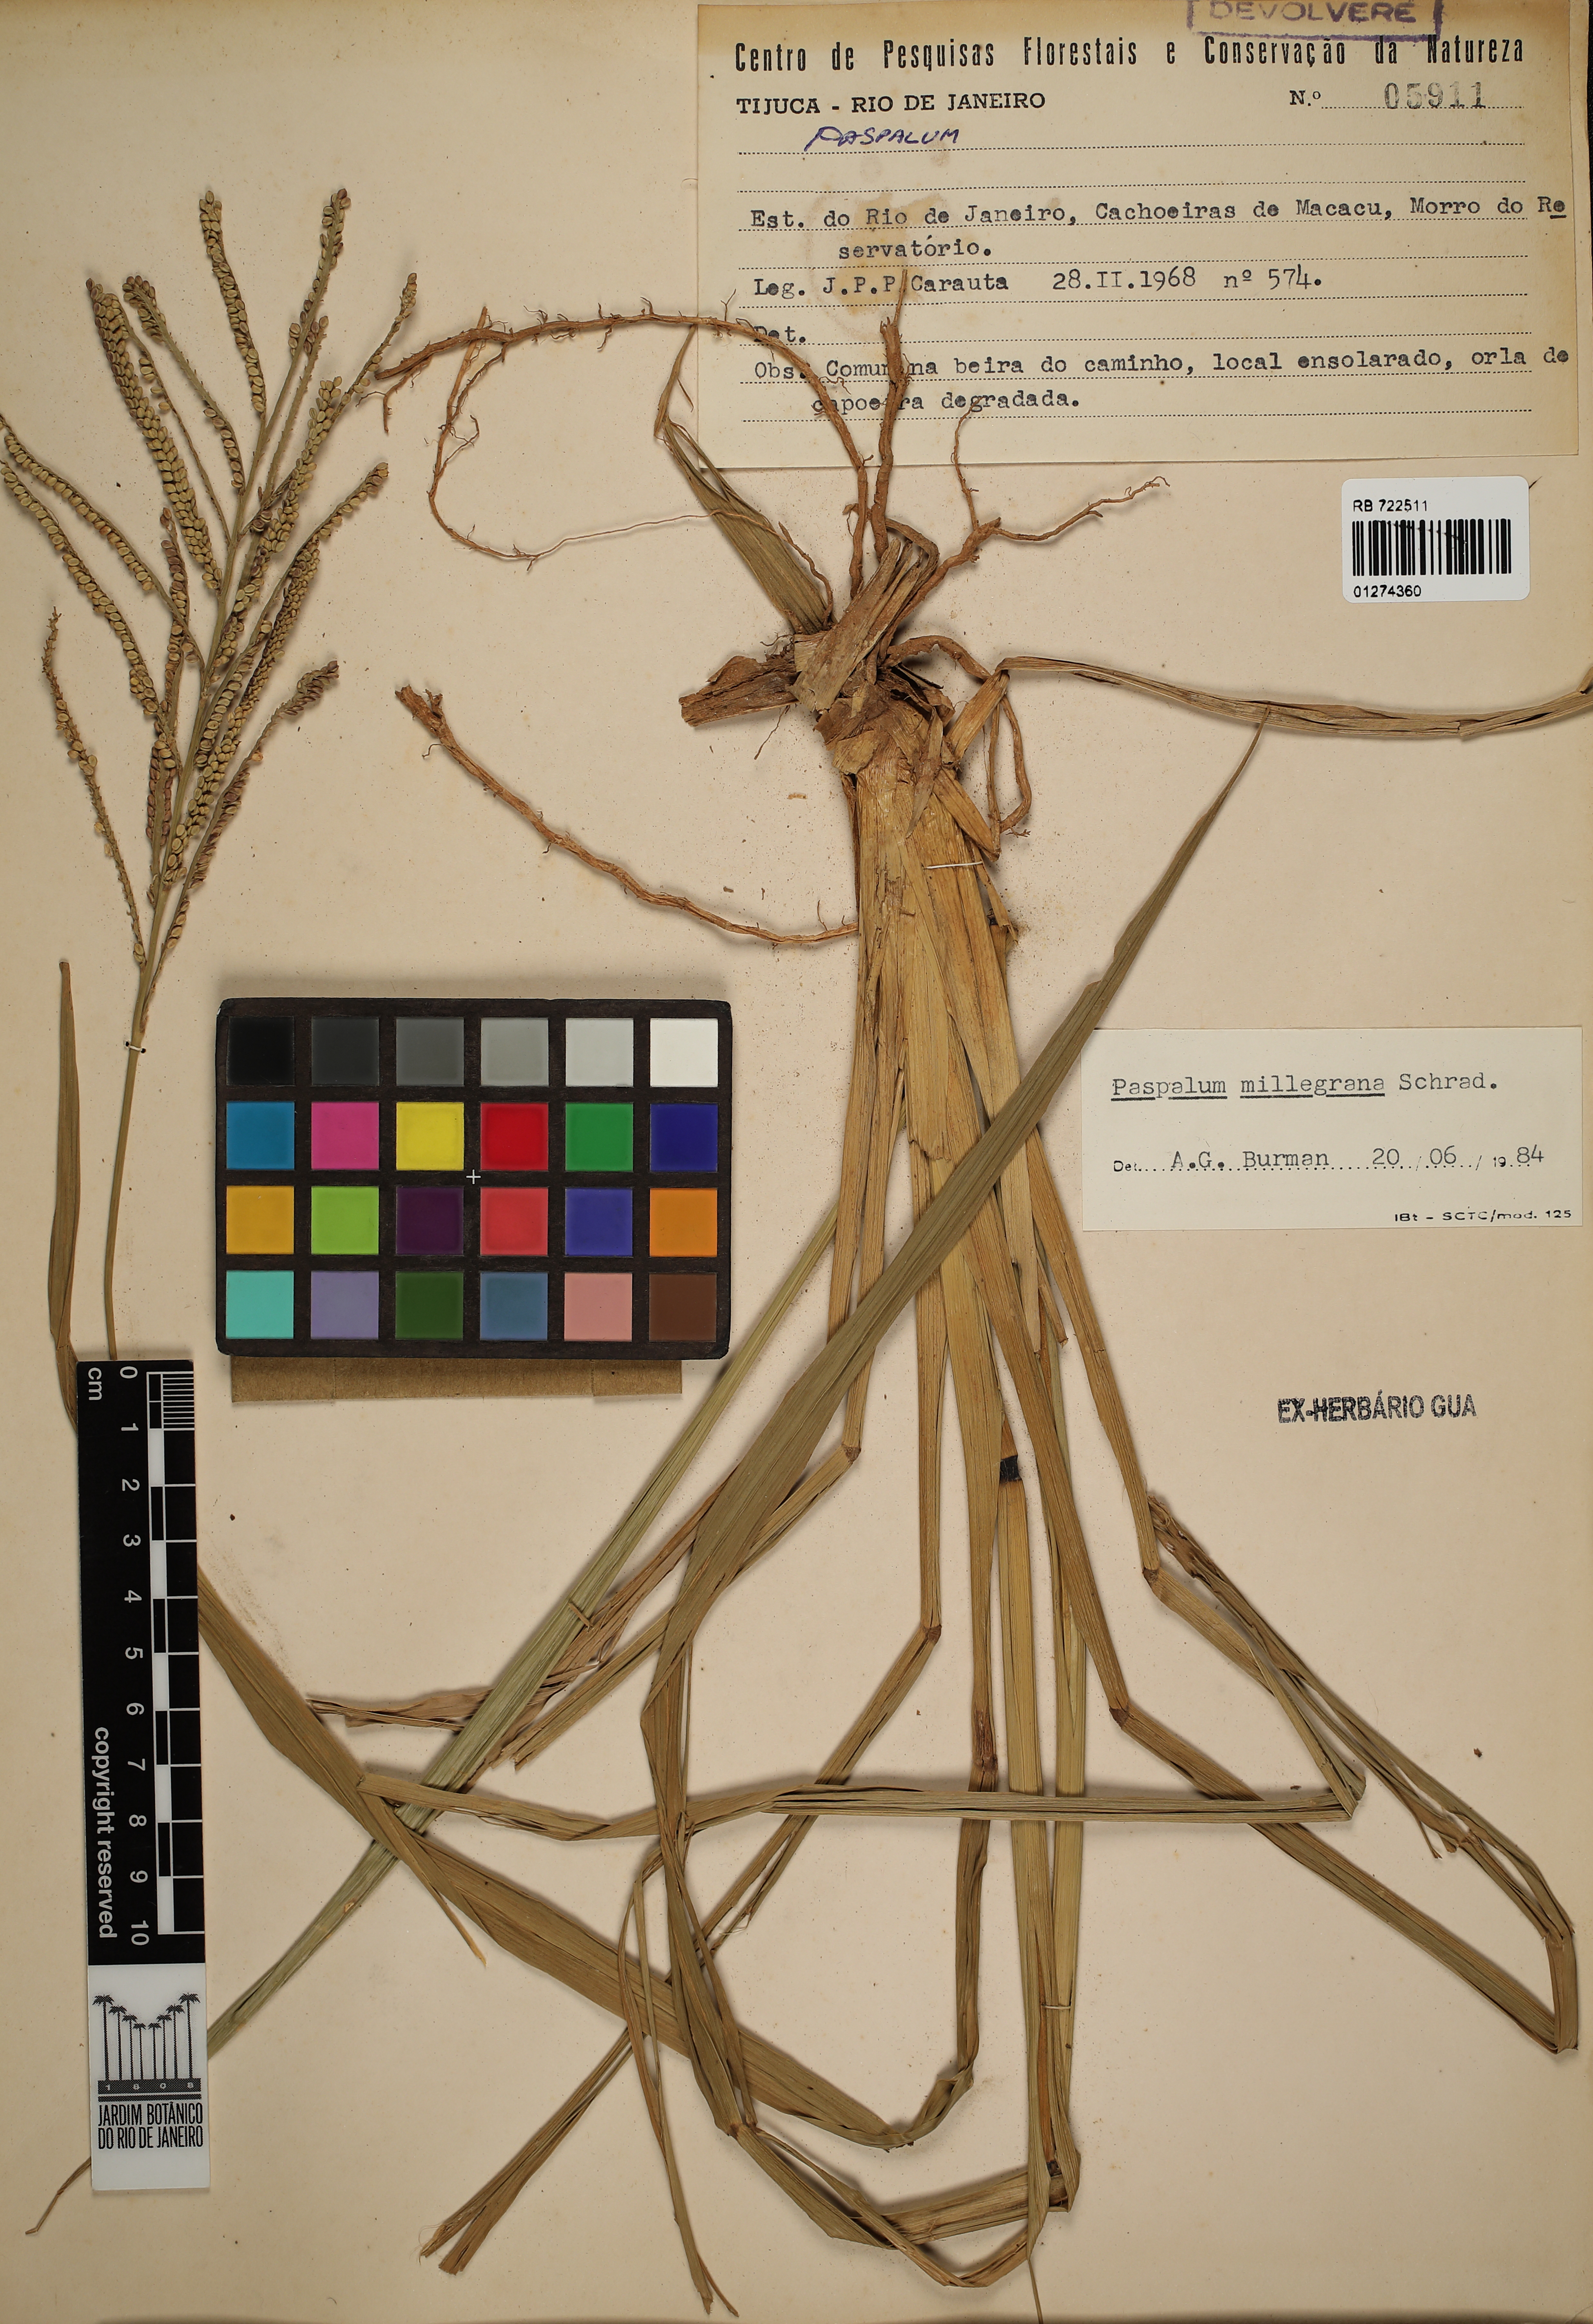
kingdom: Plantae
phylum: Tracheophyta
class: Liliopsida
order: Poales
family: Poaceae
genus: Paspalum
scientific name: Paspalum millegrana
